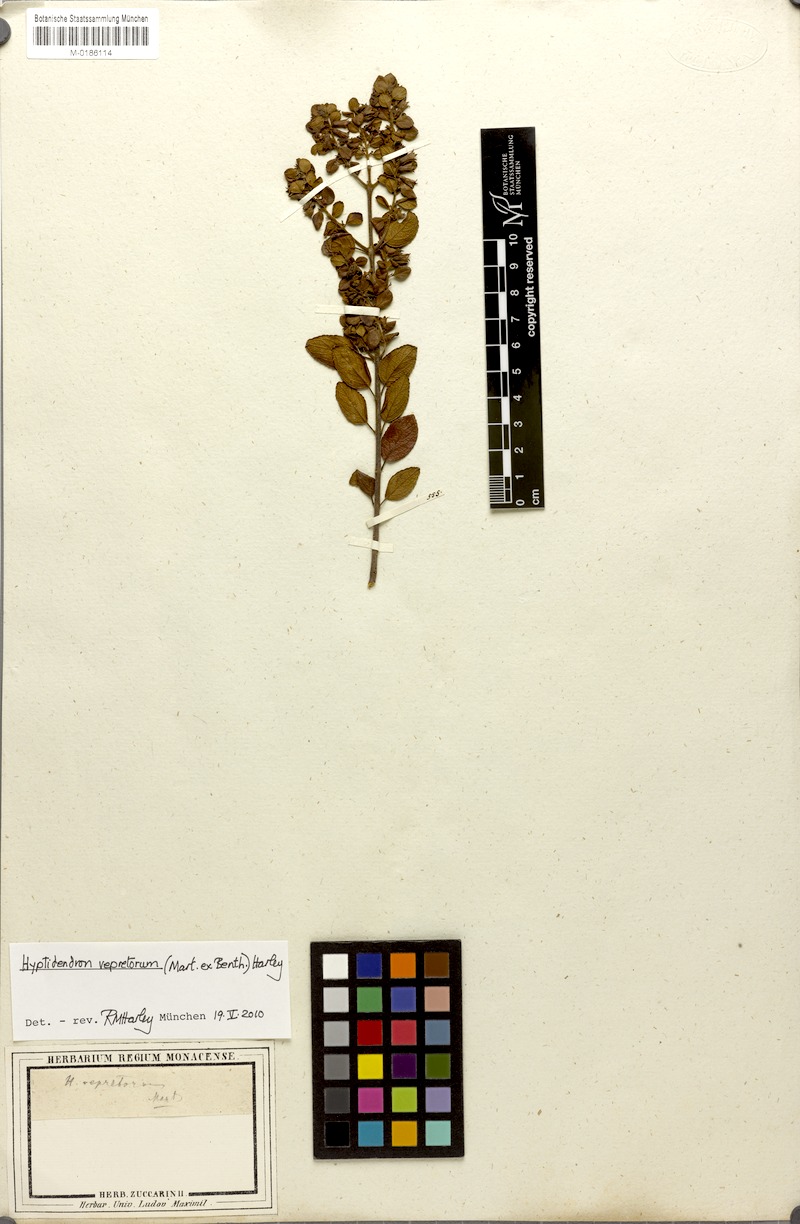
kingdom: Plantae
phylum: Tracheophyta
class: Magnoliopsida
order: Lamiales
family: Lamiaceae
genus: Hyptidendron
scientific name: Hyptidendron vepretorum
